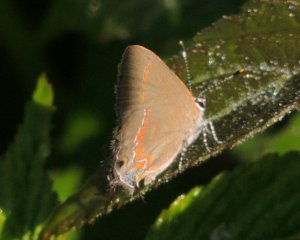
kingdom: Animalia
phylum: Arthropoda
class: Insecta
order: Lepidoptera
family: Lycaenidae
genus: Calycopis
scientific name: Calycopis cecrops
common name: Red-banded Hairstreak
